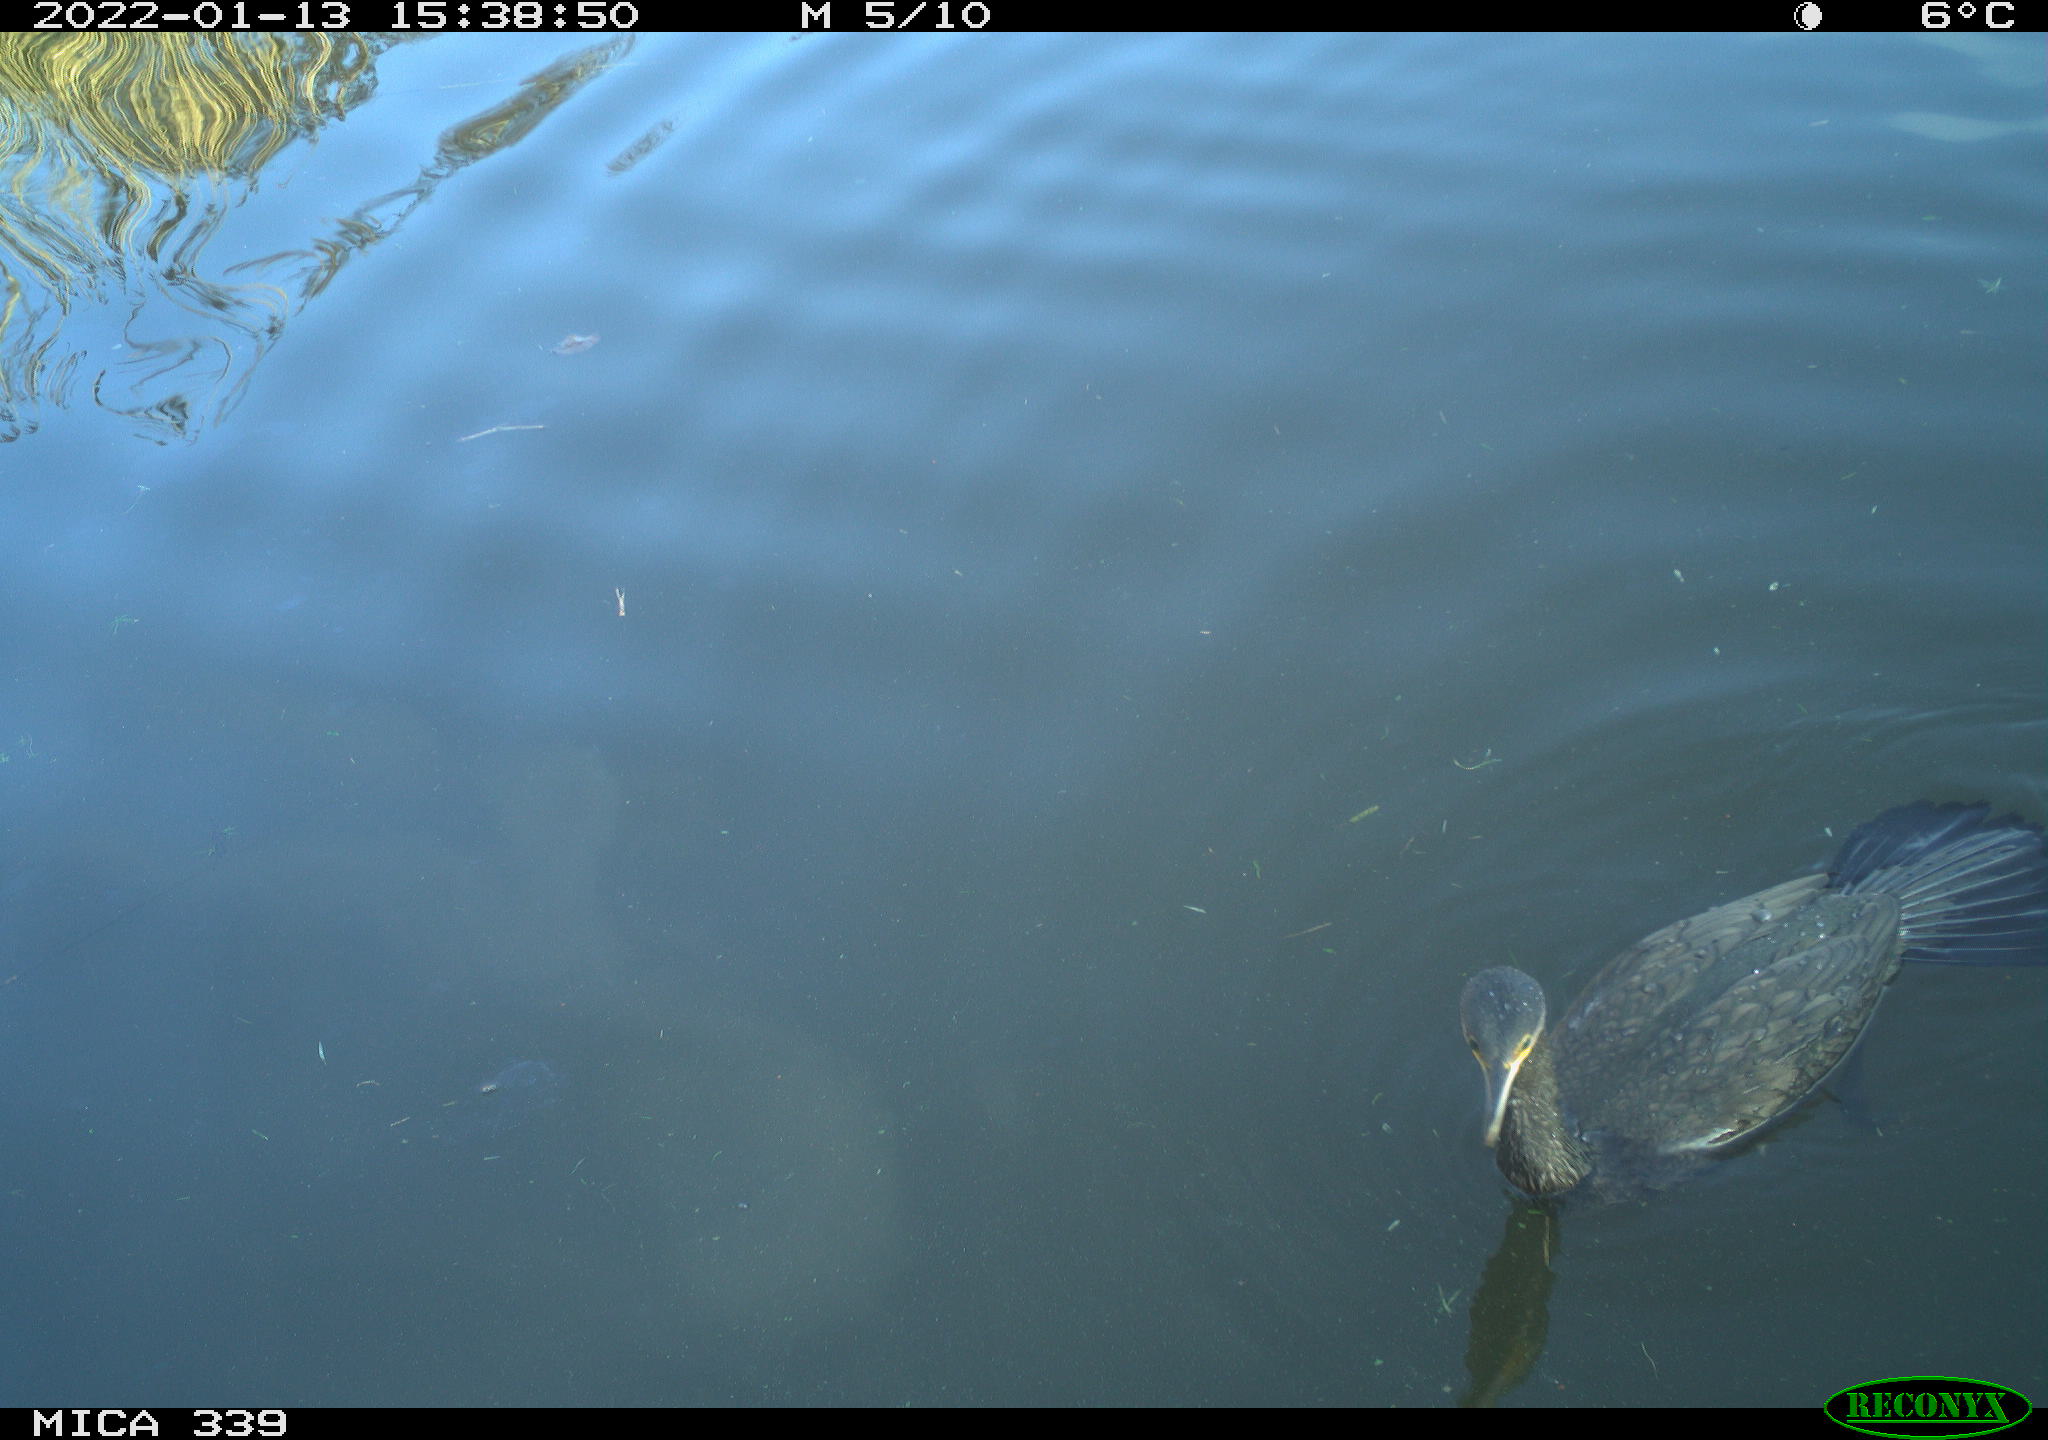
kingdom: Animalia
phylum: Chordata
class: Aves
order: Suliformes
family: Phalacrocoracidae
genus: Phalacrocorax
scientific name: Phalacrocorax carbo
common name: Great cormorant
